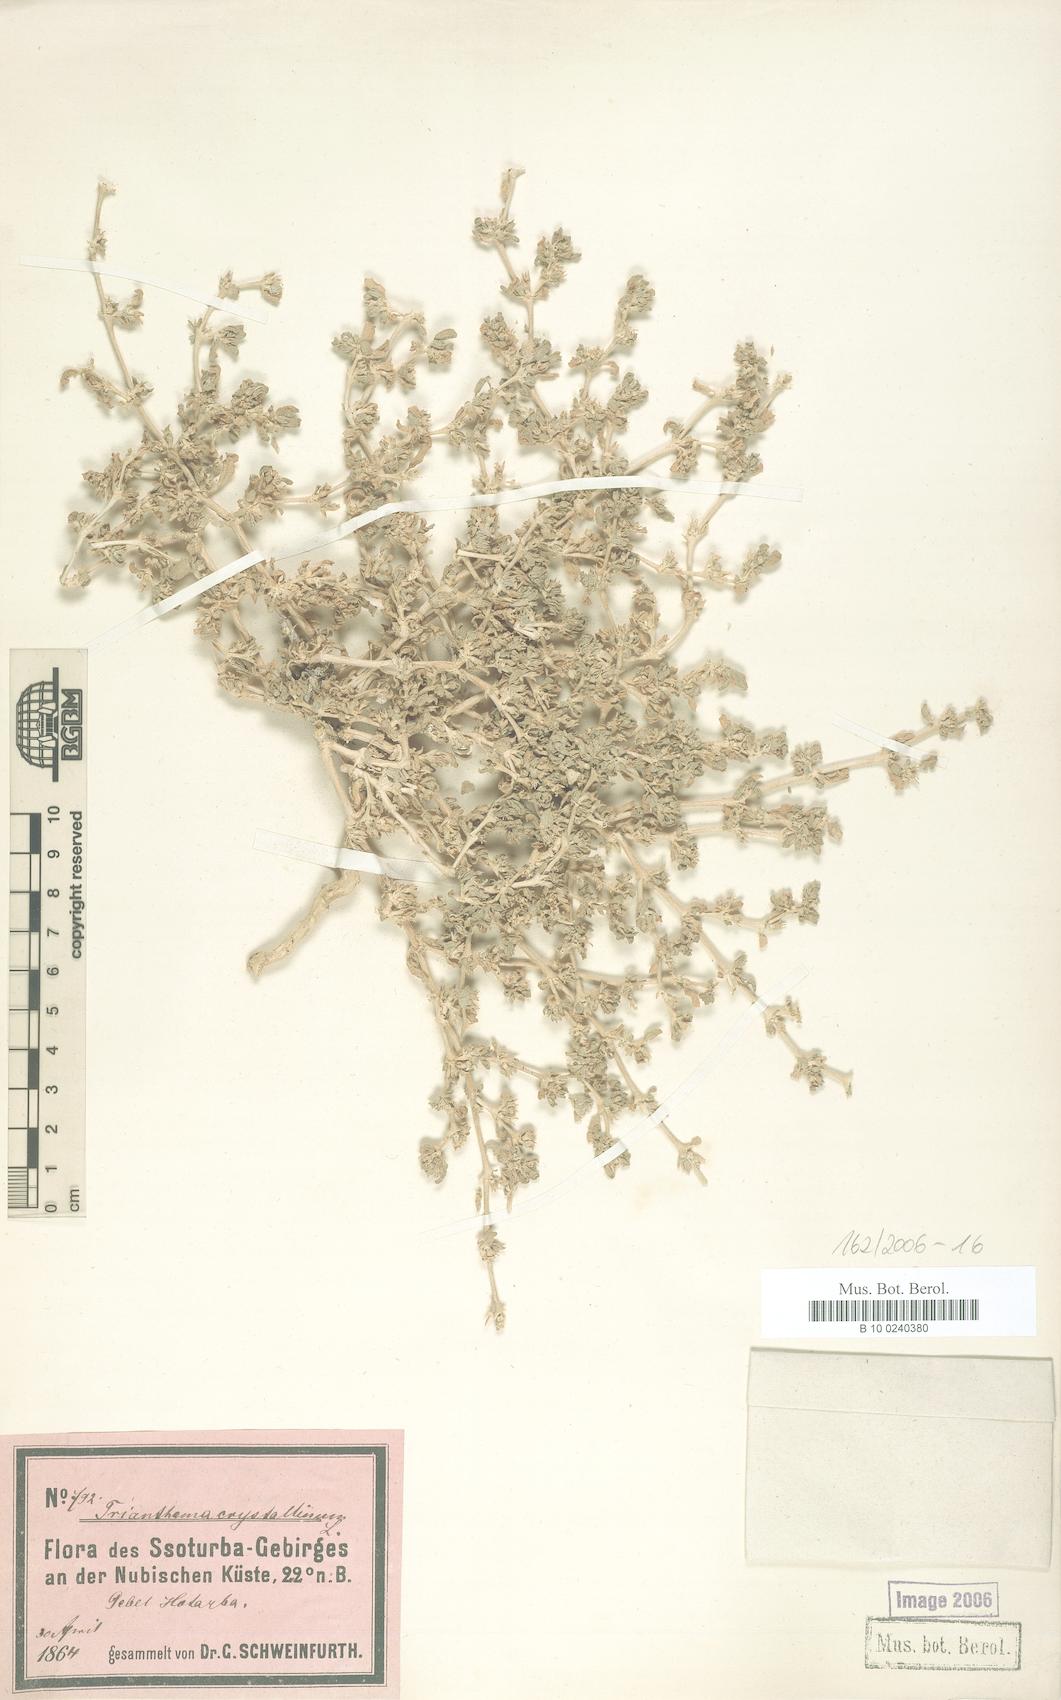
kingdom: Plantae
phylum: Tracheophyta
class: Magnoliopsida
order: Caryophyllales
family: Aizoaceae
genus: Trianthema
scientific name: Trianthema sheilae
